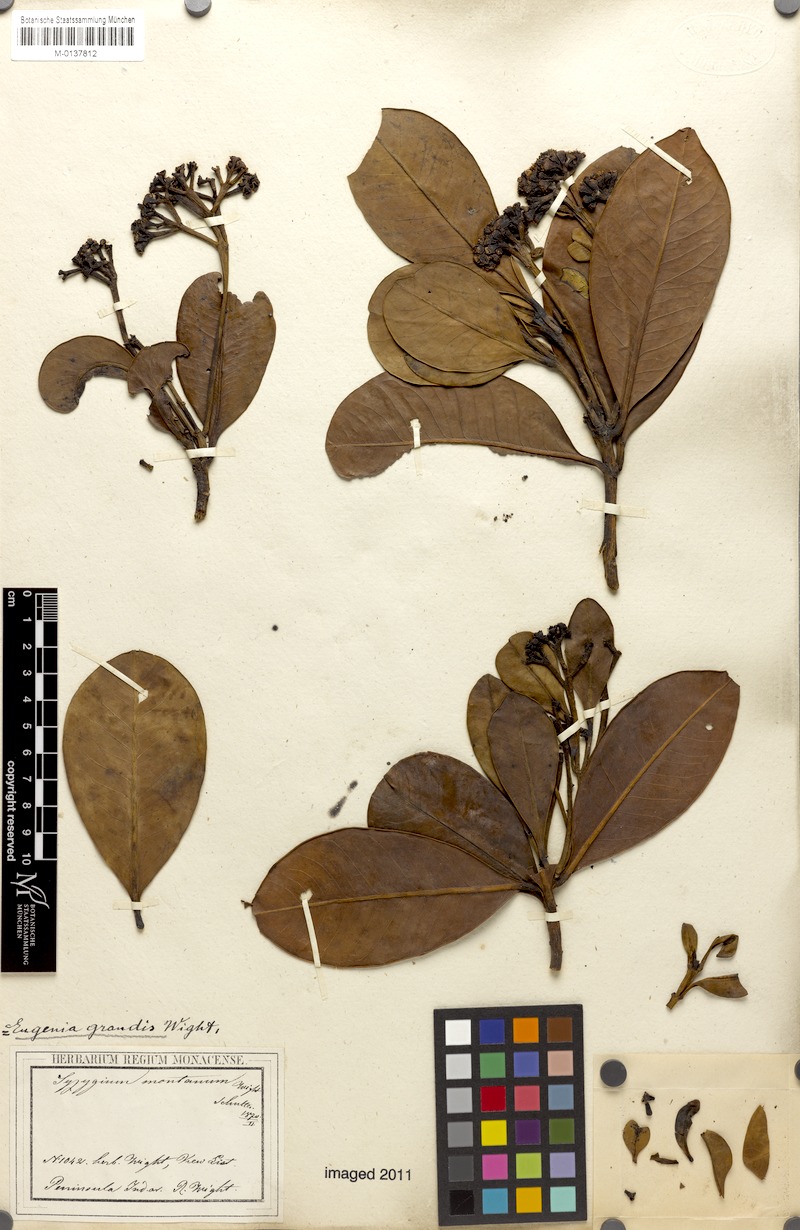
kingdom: Plantae
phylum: Tracheophyta
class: Magnoliopsida
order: Myrtales
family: Myrtaceae
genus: Syzygium
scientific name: Syzygium grande
